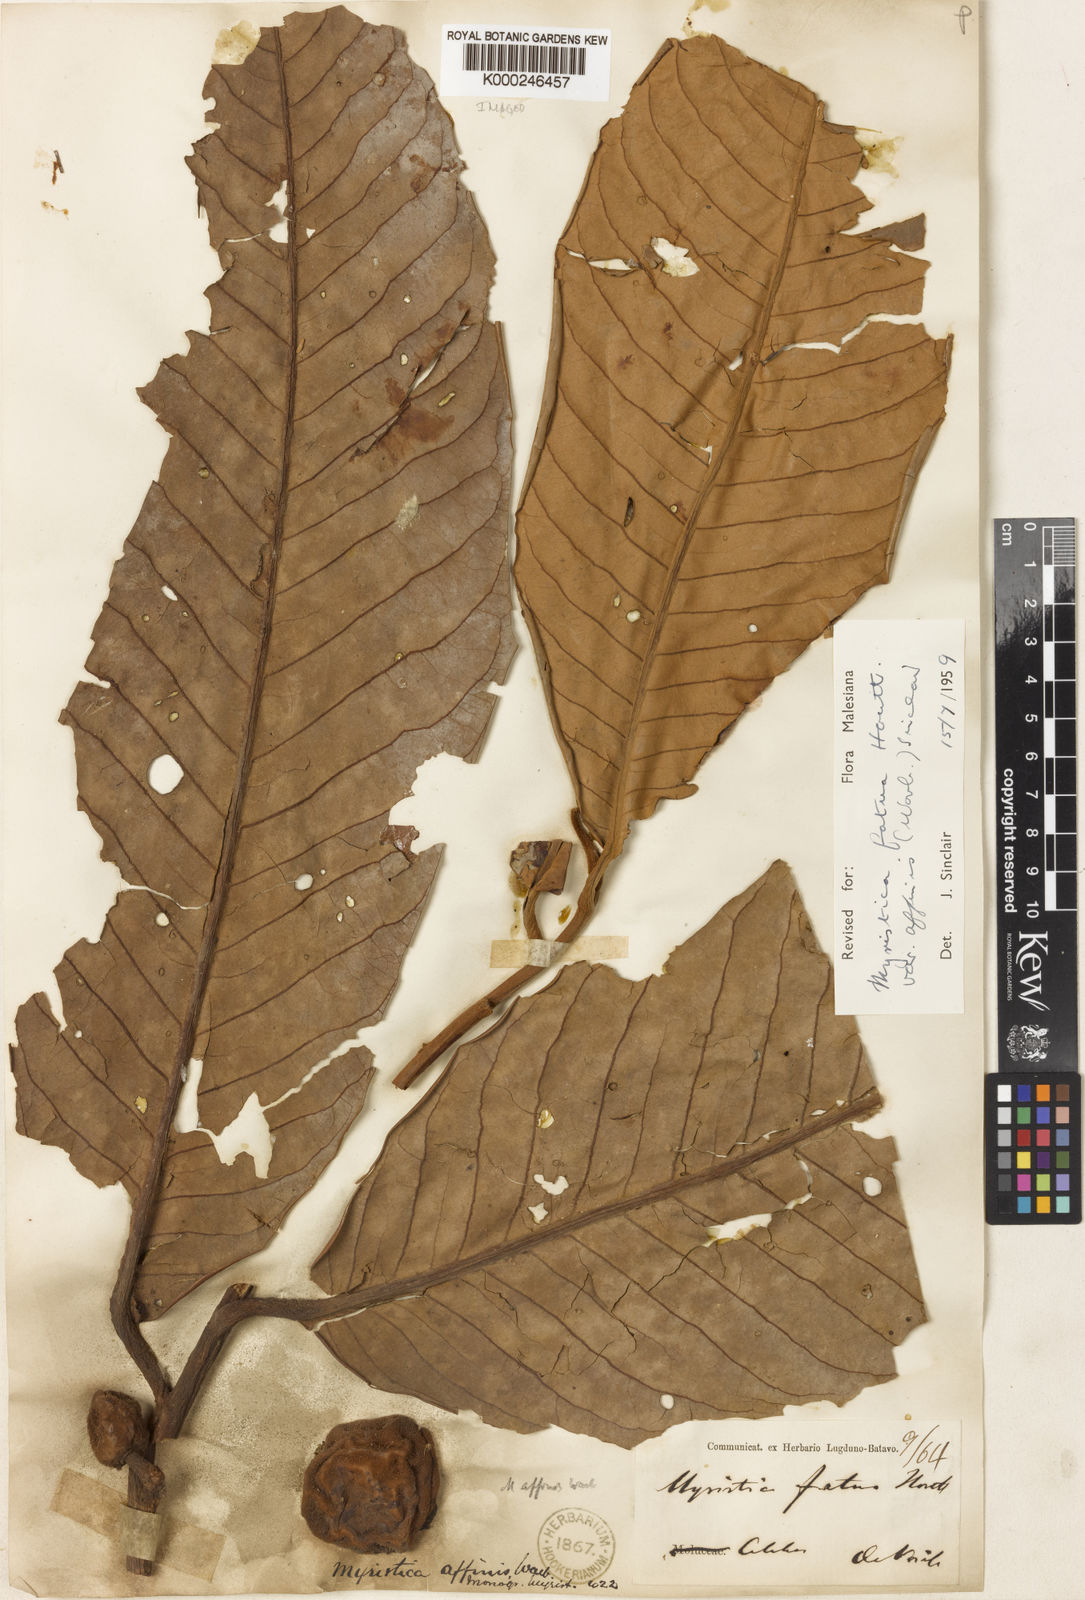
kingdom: Plantae
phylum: Tracheophyta
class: Magnoliopsida
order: Magnoliales
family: Myristicaceae
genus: Myristica
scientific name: Myristica fatua
